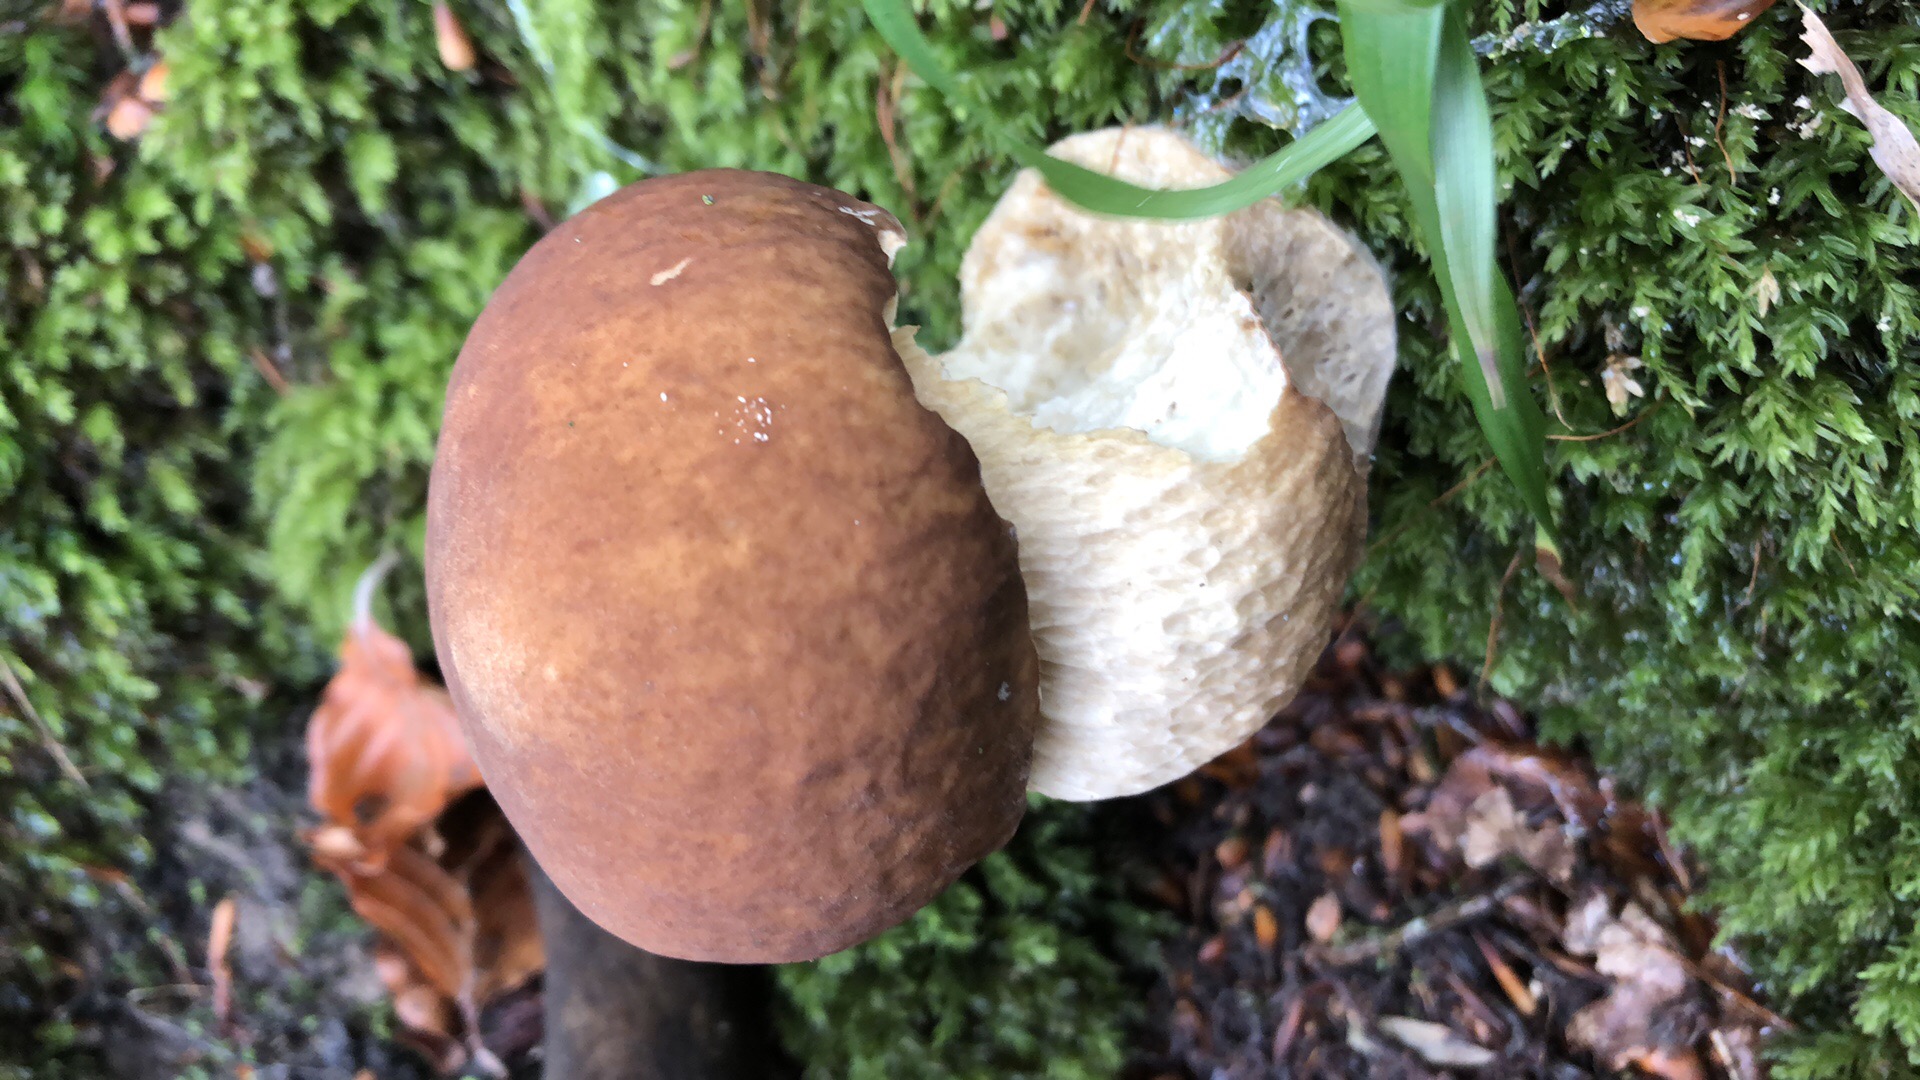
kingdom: Fungi
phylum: Basidiomycota
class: Agaricomycetes
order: Boletales
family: Boletaceae
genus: Boletus
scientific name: Boletus edulis
